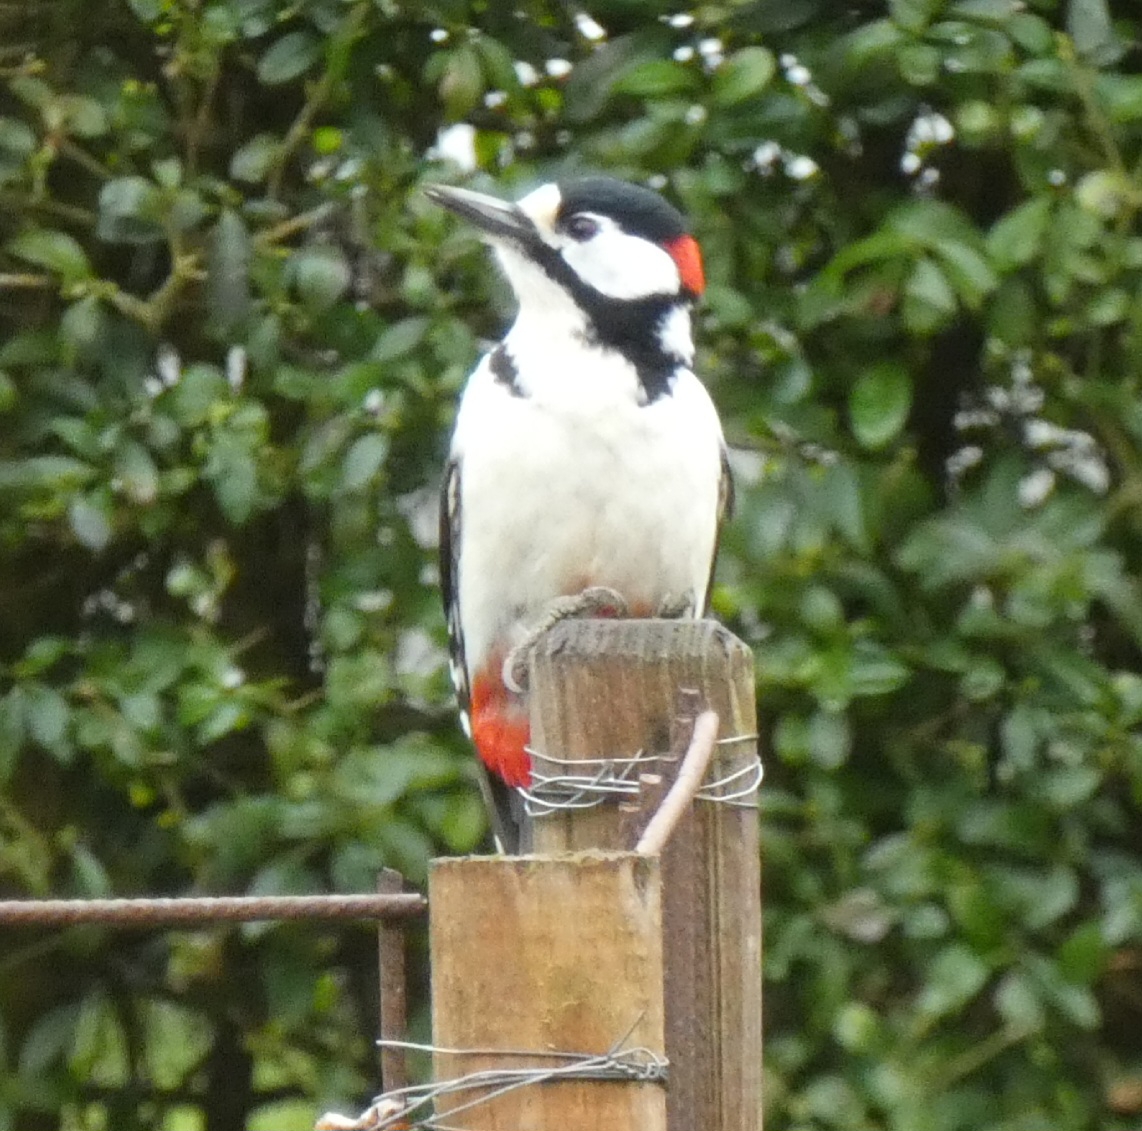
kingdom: Animalia
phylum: Chordata
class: Aves
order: Piciformes
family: Picidae
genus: Dendrocopos
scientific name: Dendrocopos major
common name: Stor flagspætte
